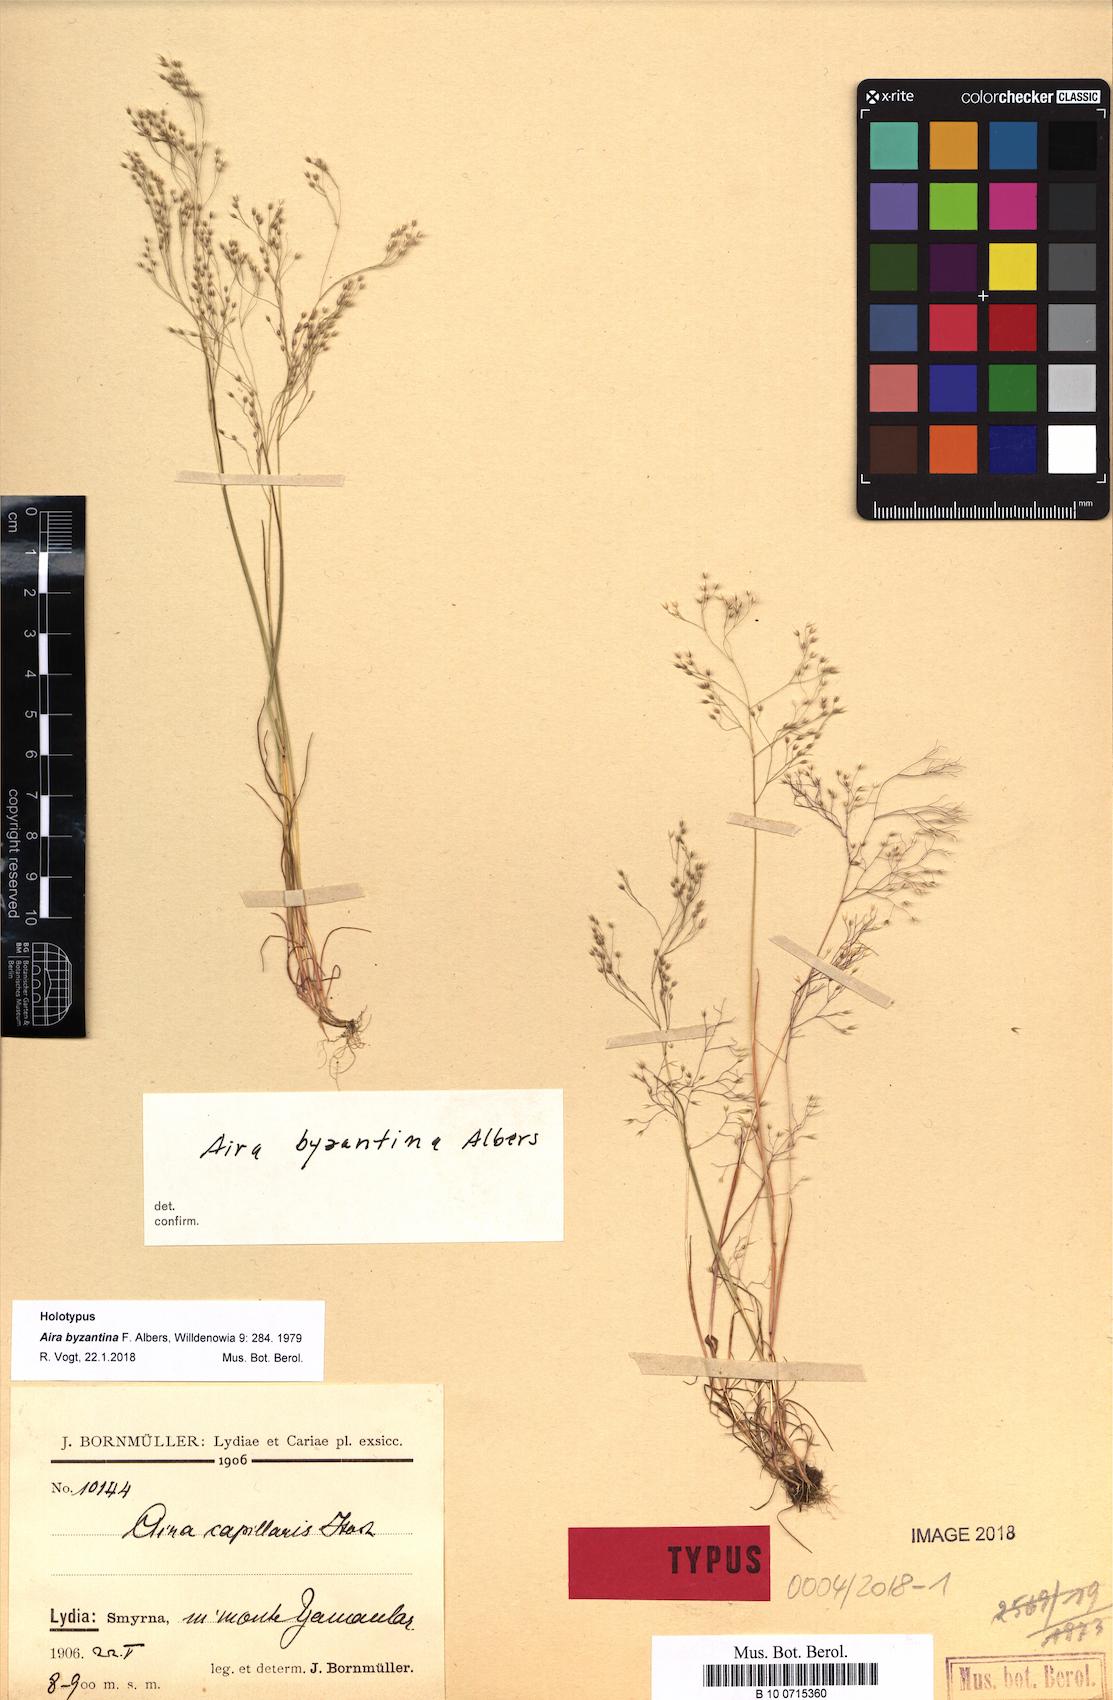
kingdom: Plantae
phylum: Tracheophyta
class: Liliopsida
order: Poales
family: Poaceae
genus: Aira
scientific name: Aira elegans
